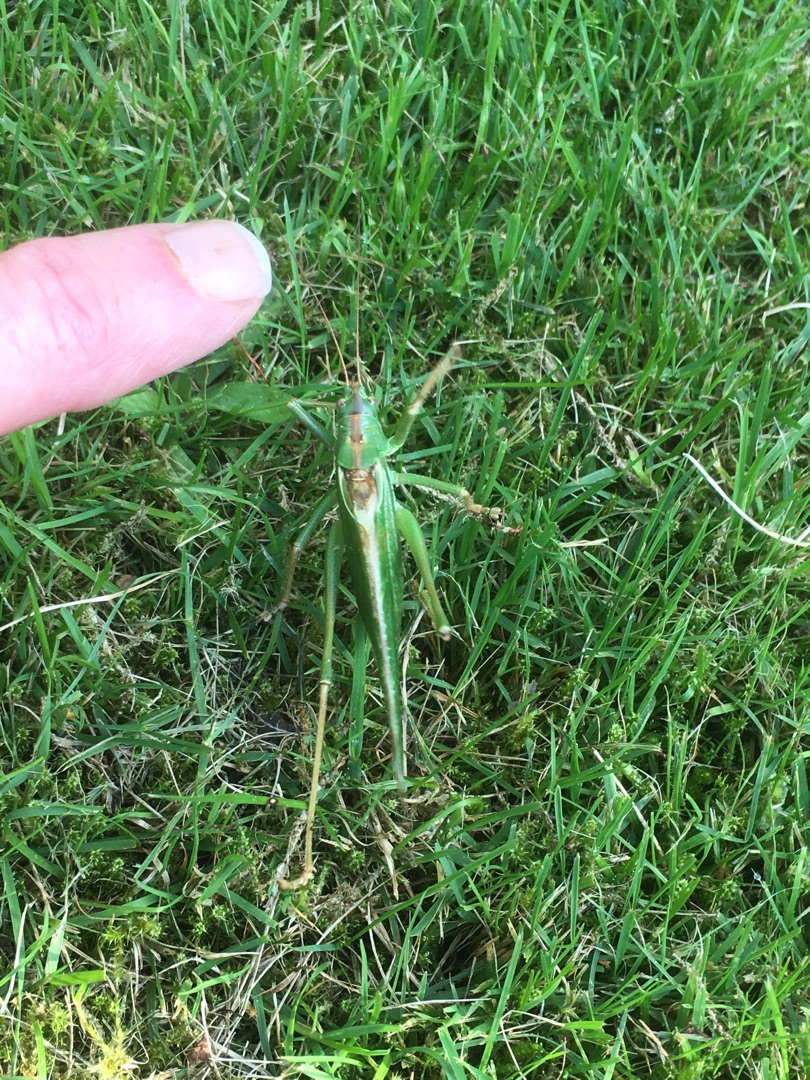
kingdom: Animalia
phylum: Arthropoda
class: Insecta
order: Orthoptera
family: Tettigoniidae
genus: Tettigonia
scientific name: Tettigonia viridissima
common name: Stor grøn løvgræshoppe
